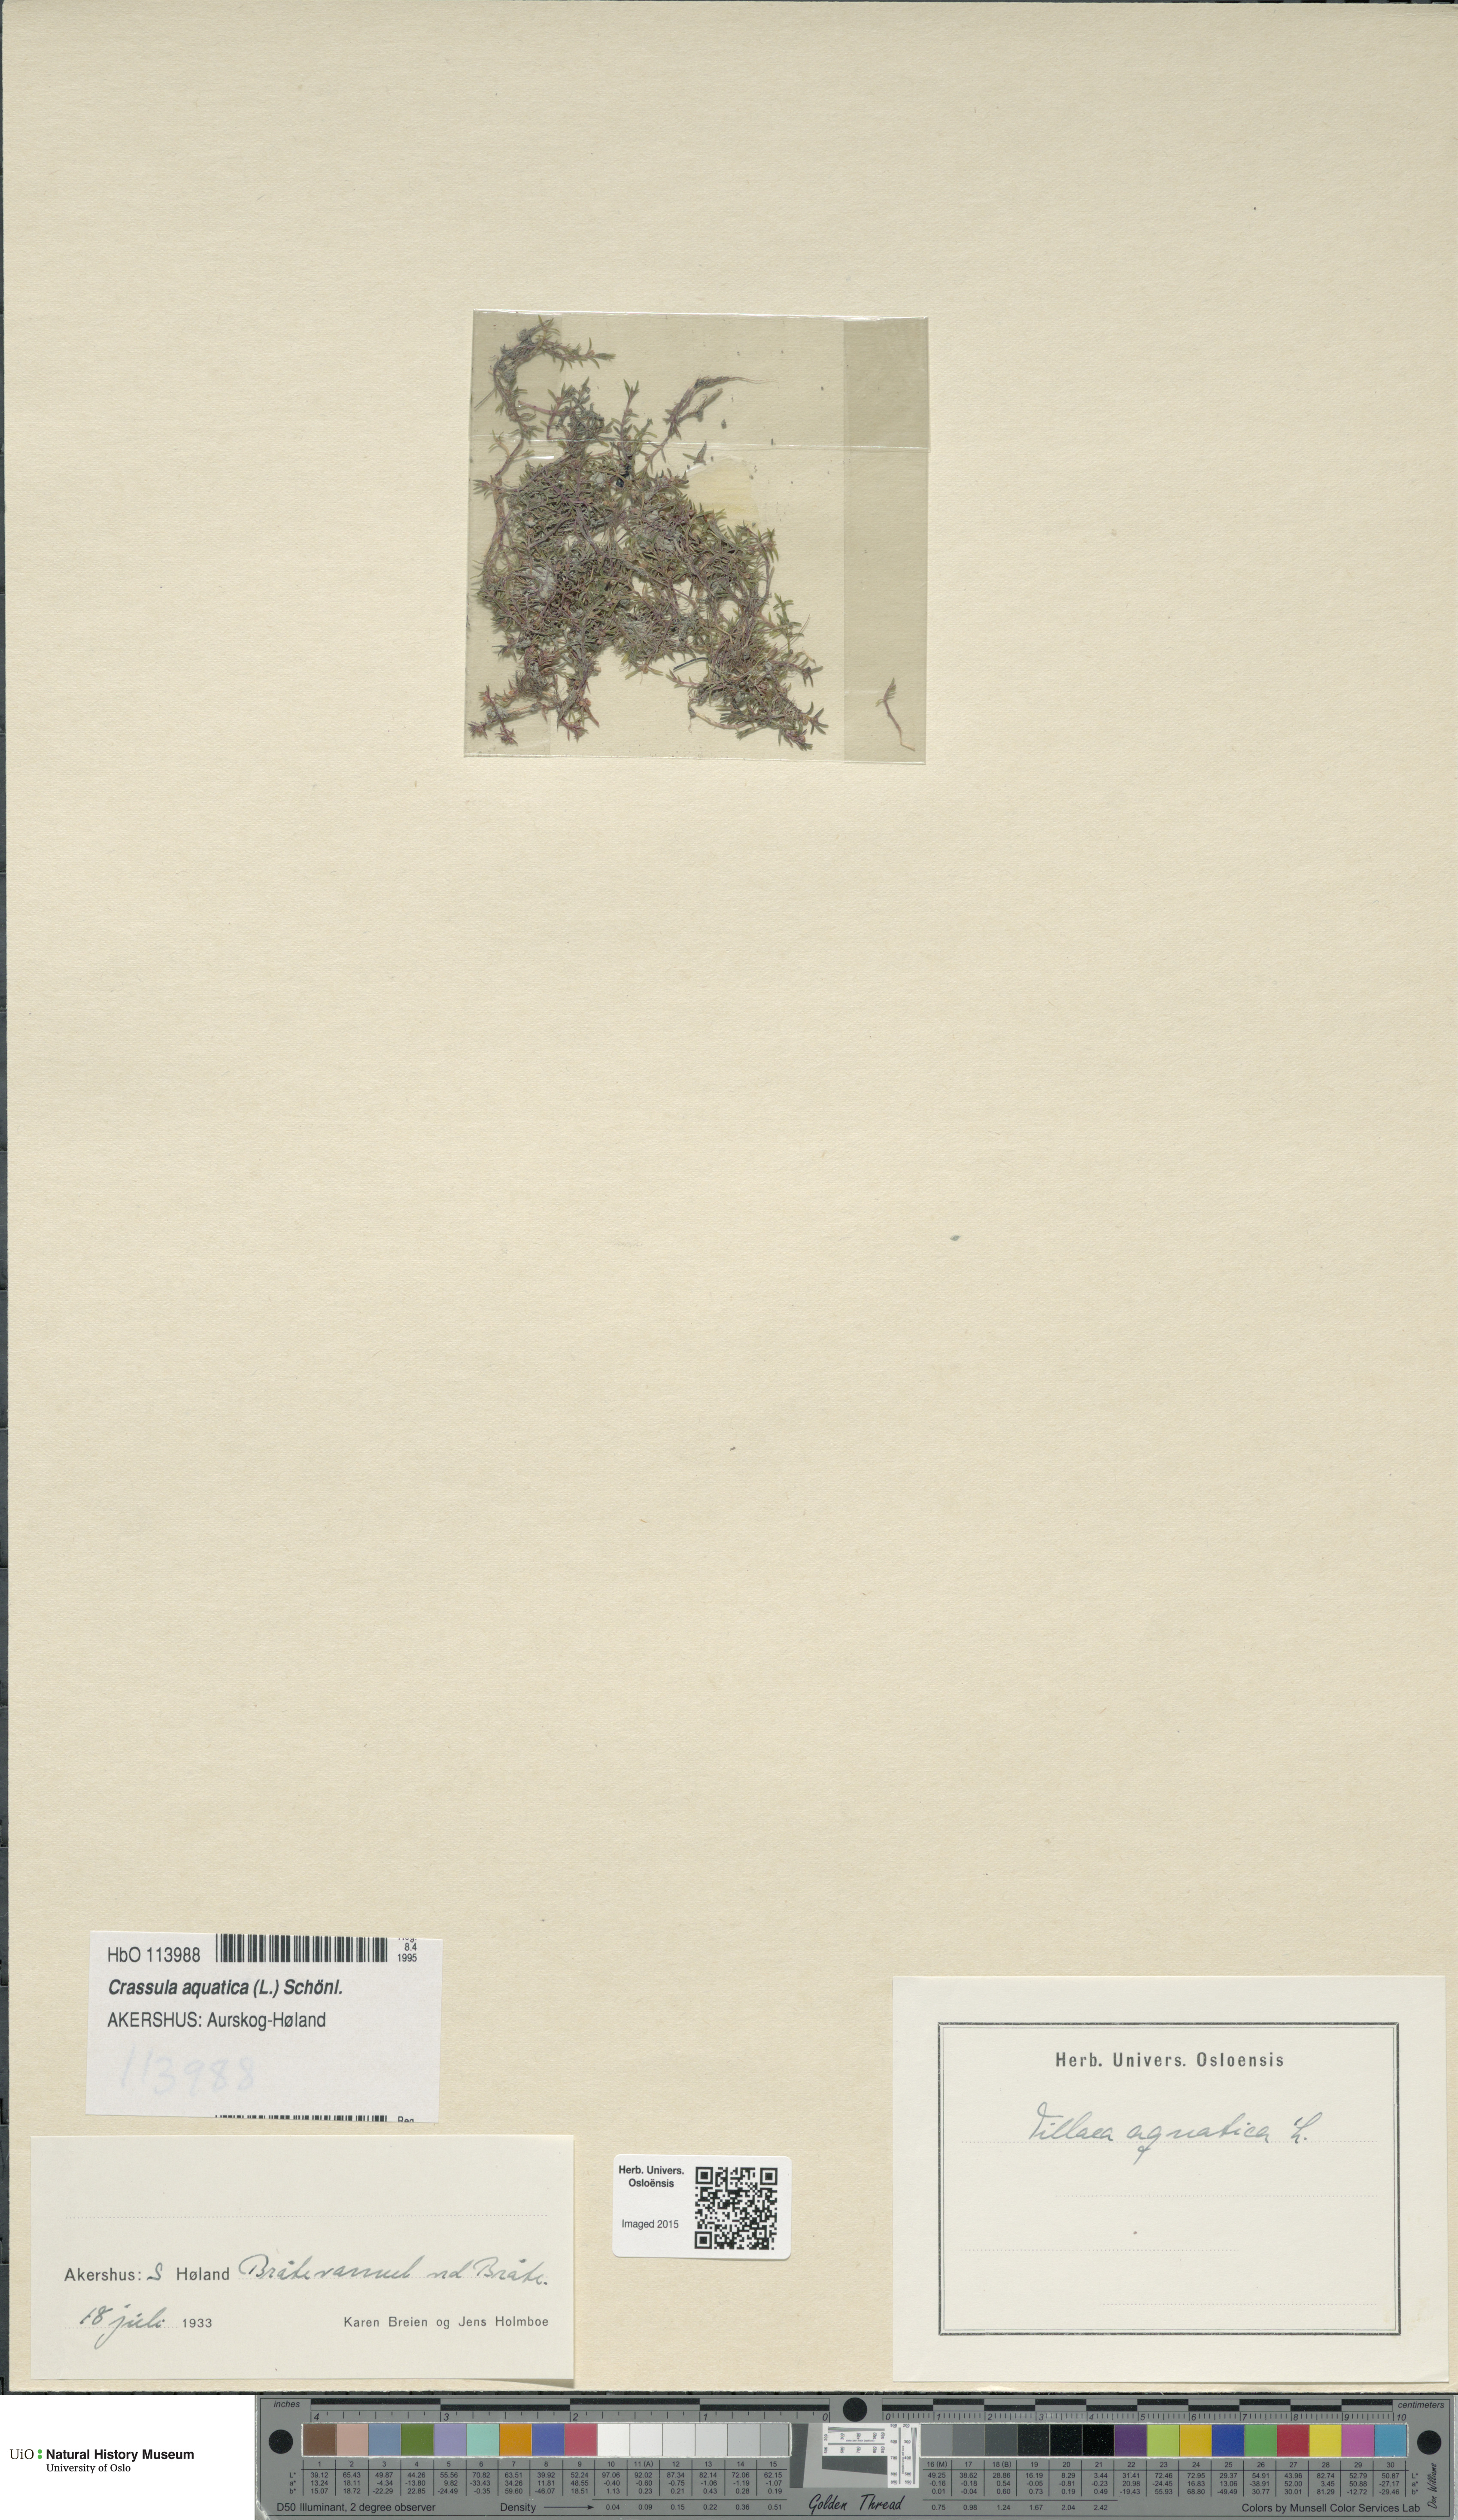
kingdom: Plantae
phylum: Tracheophyta
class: Magnoliopsida
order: Saxifragales
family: Crassulaceae
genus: Crassula
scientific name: Crassula aquatica
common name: Pigmyweed
